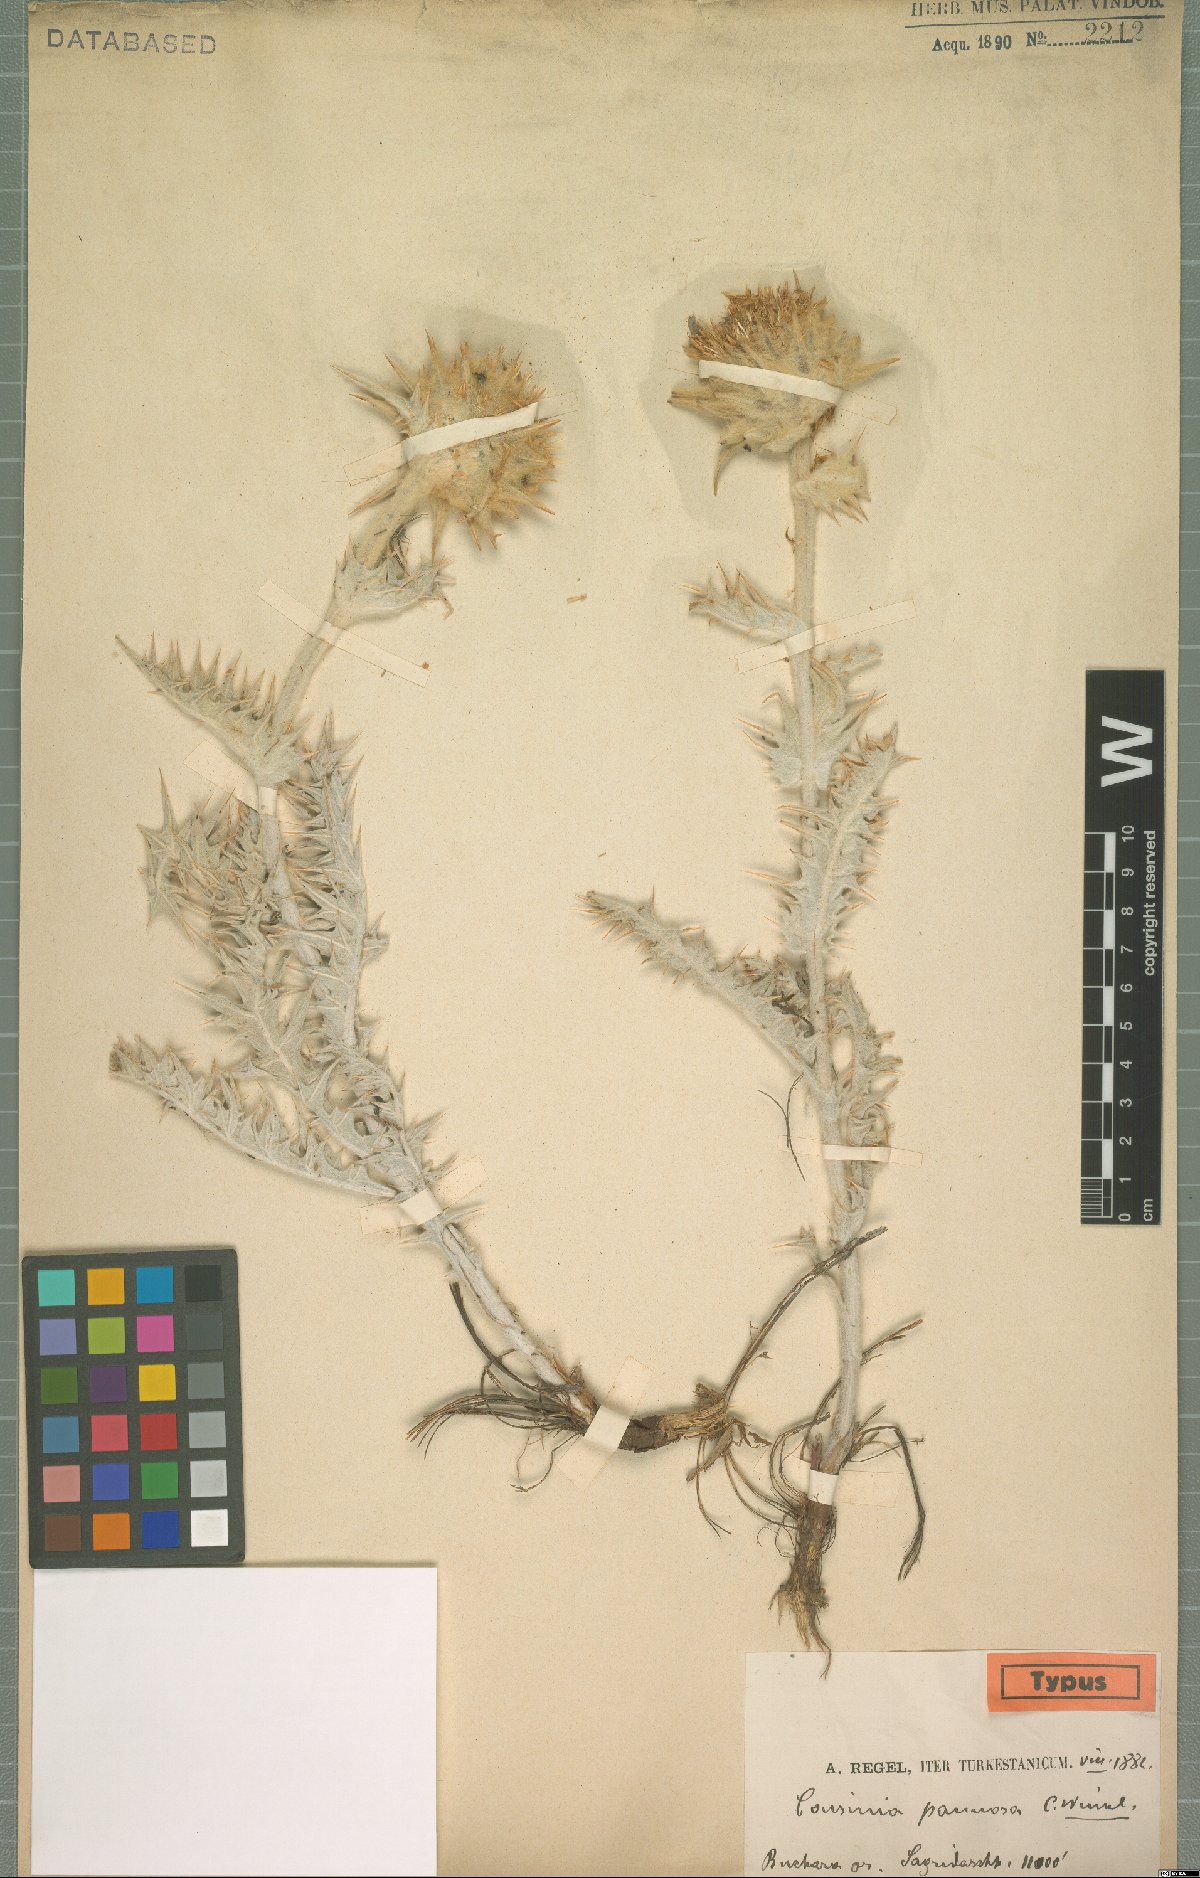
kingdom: Plantae
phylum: Tracheophyta
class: Magnoliopsida
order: Asterales
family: Asteraceae
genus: Cousinia
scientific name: Cousinia pannosa
